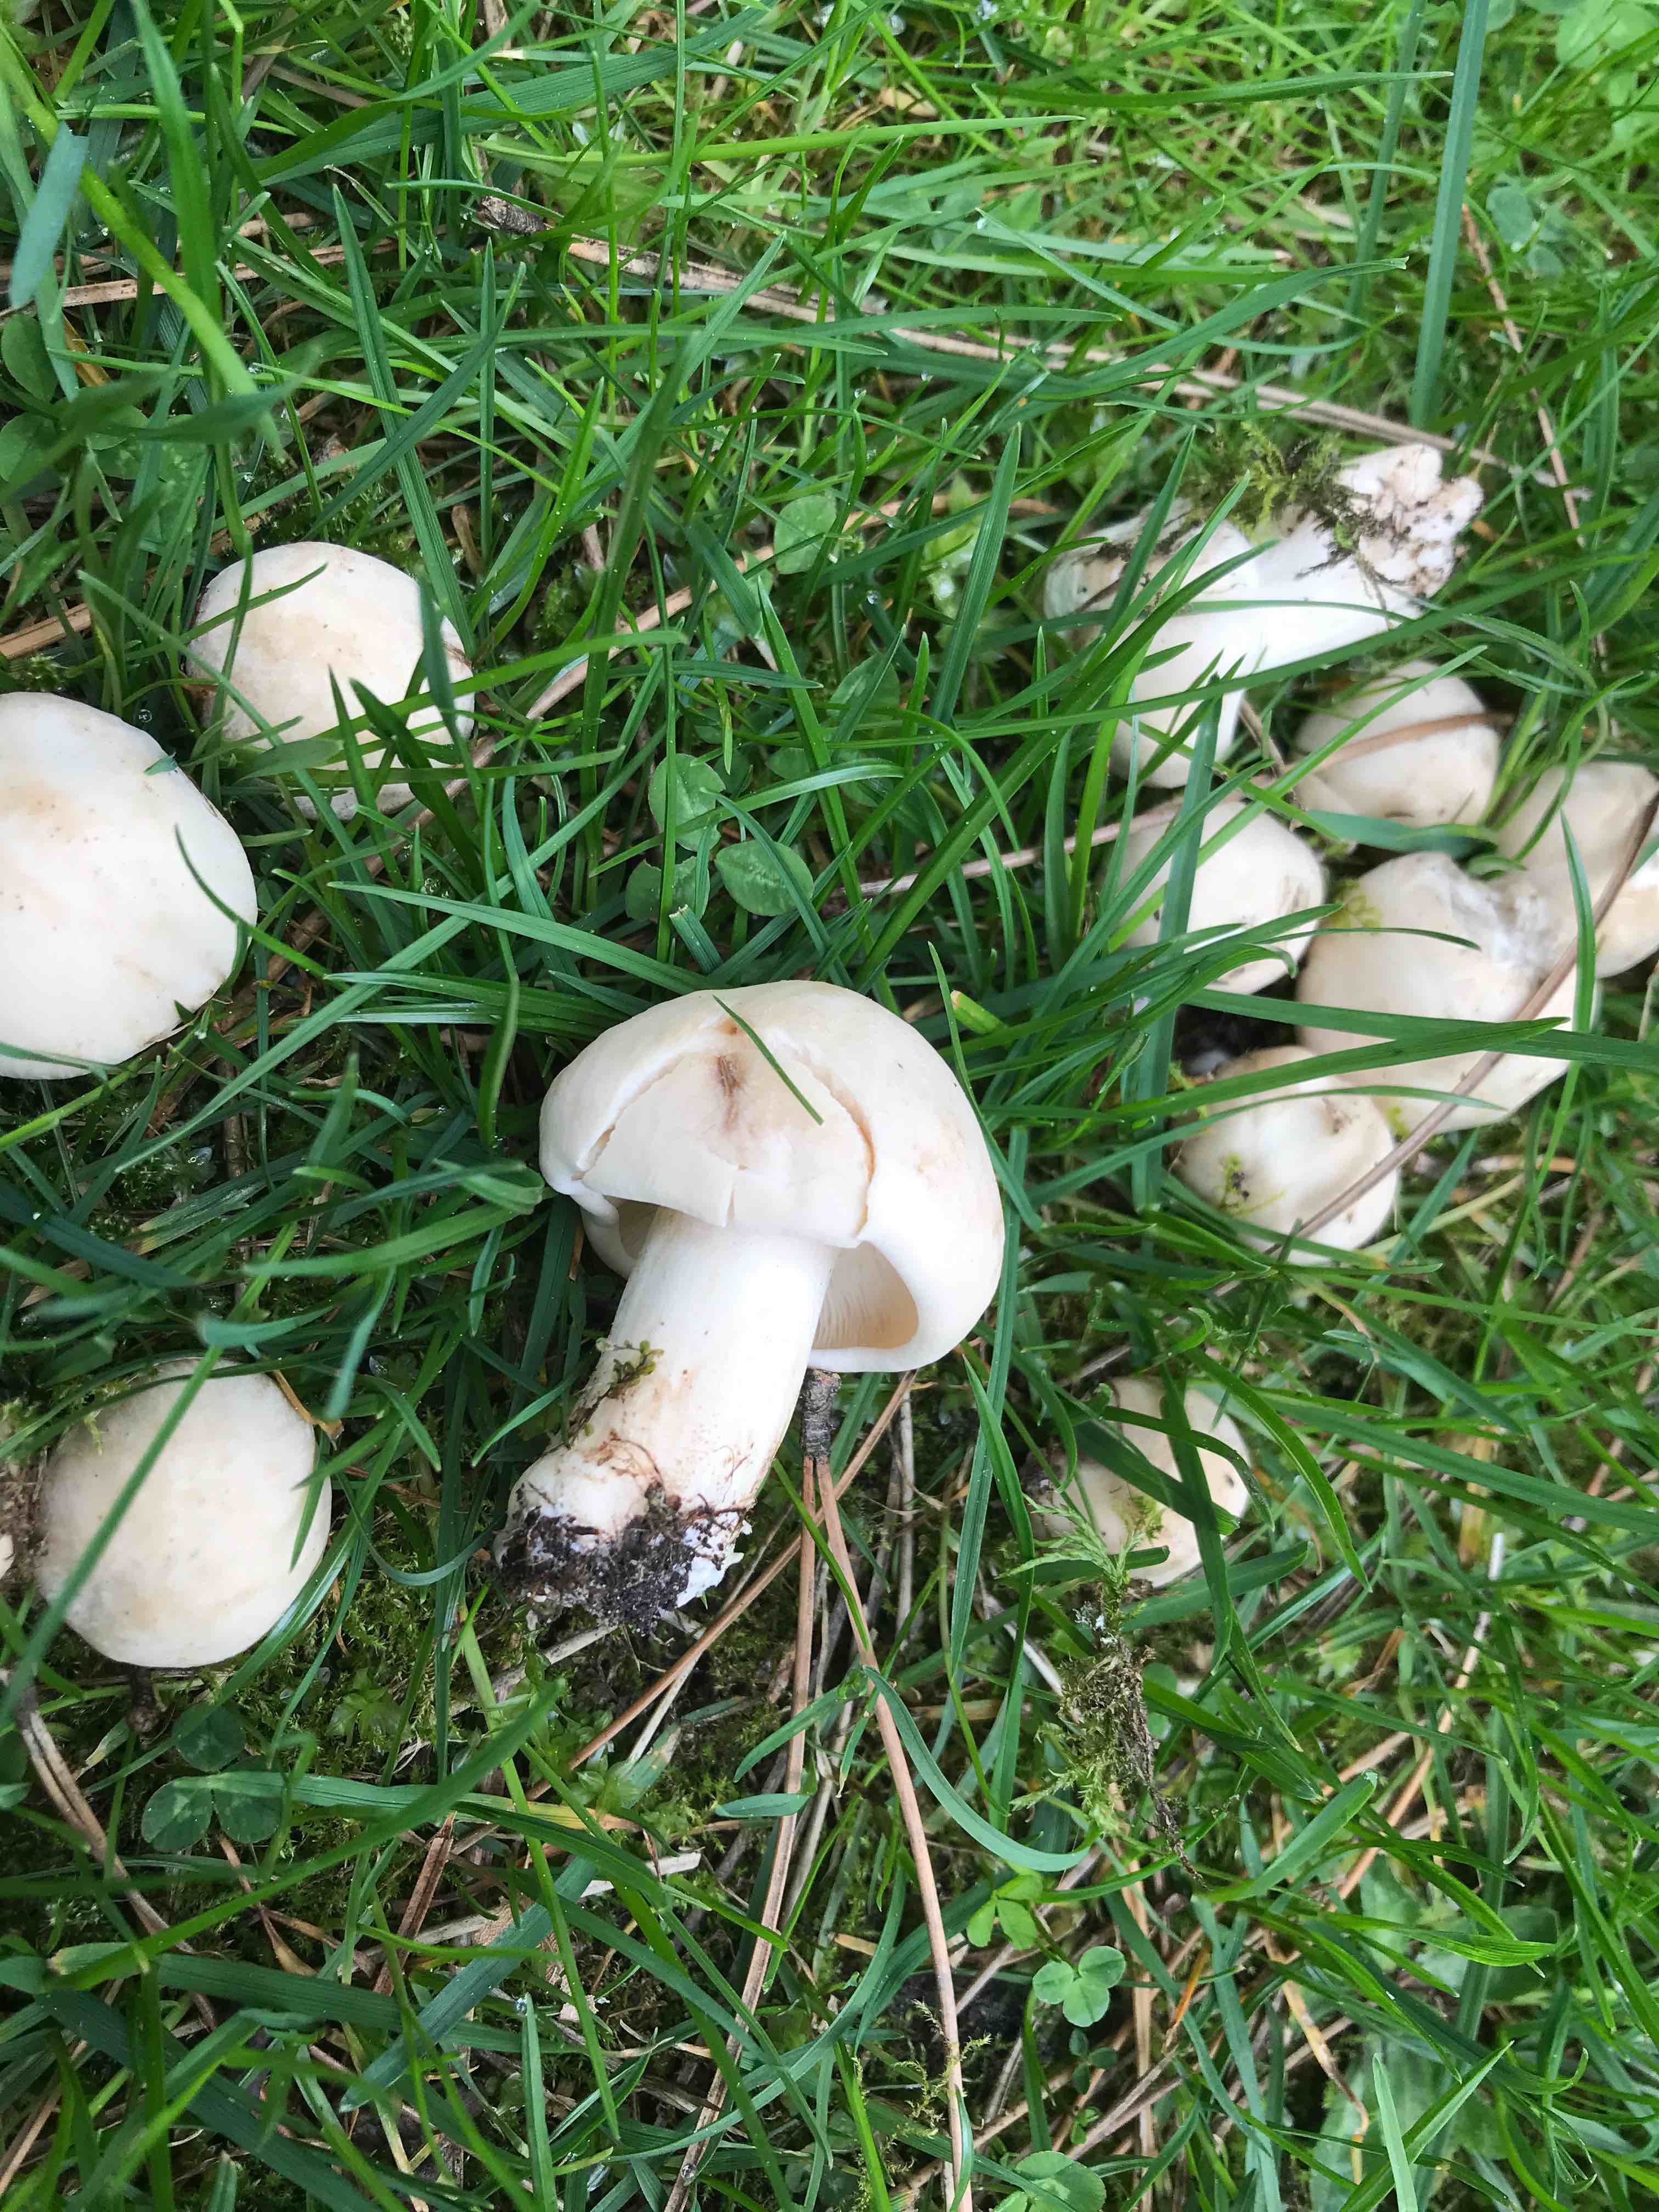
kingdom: Fungi
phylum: Basidiomycota
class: Agaricomycetes
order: Agaricales
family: Lyophyllaceae
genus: Calocybe
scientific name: Calocybe gambosa
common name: vårmusseron
